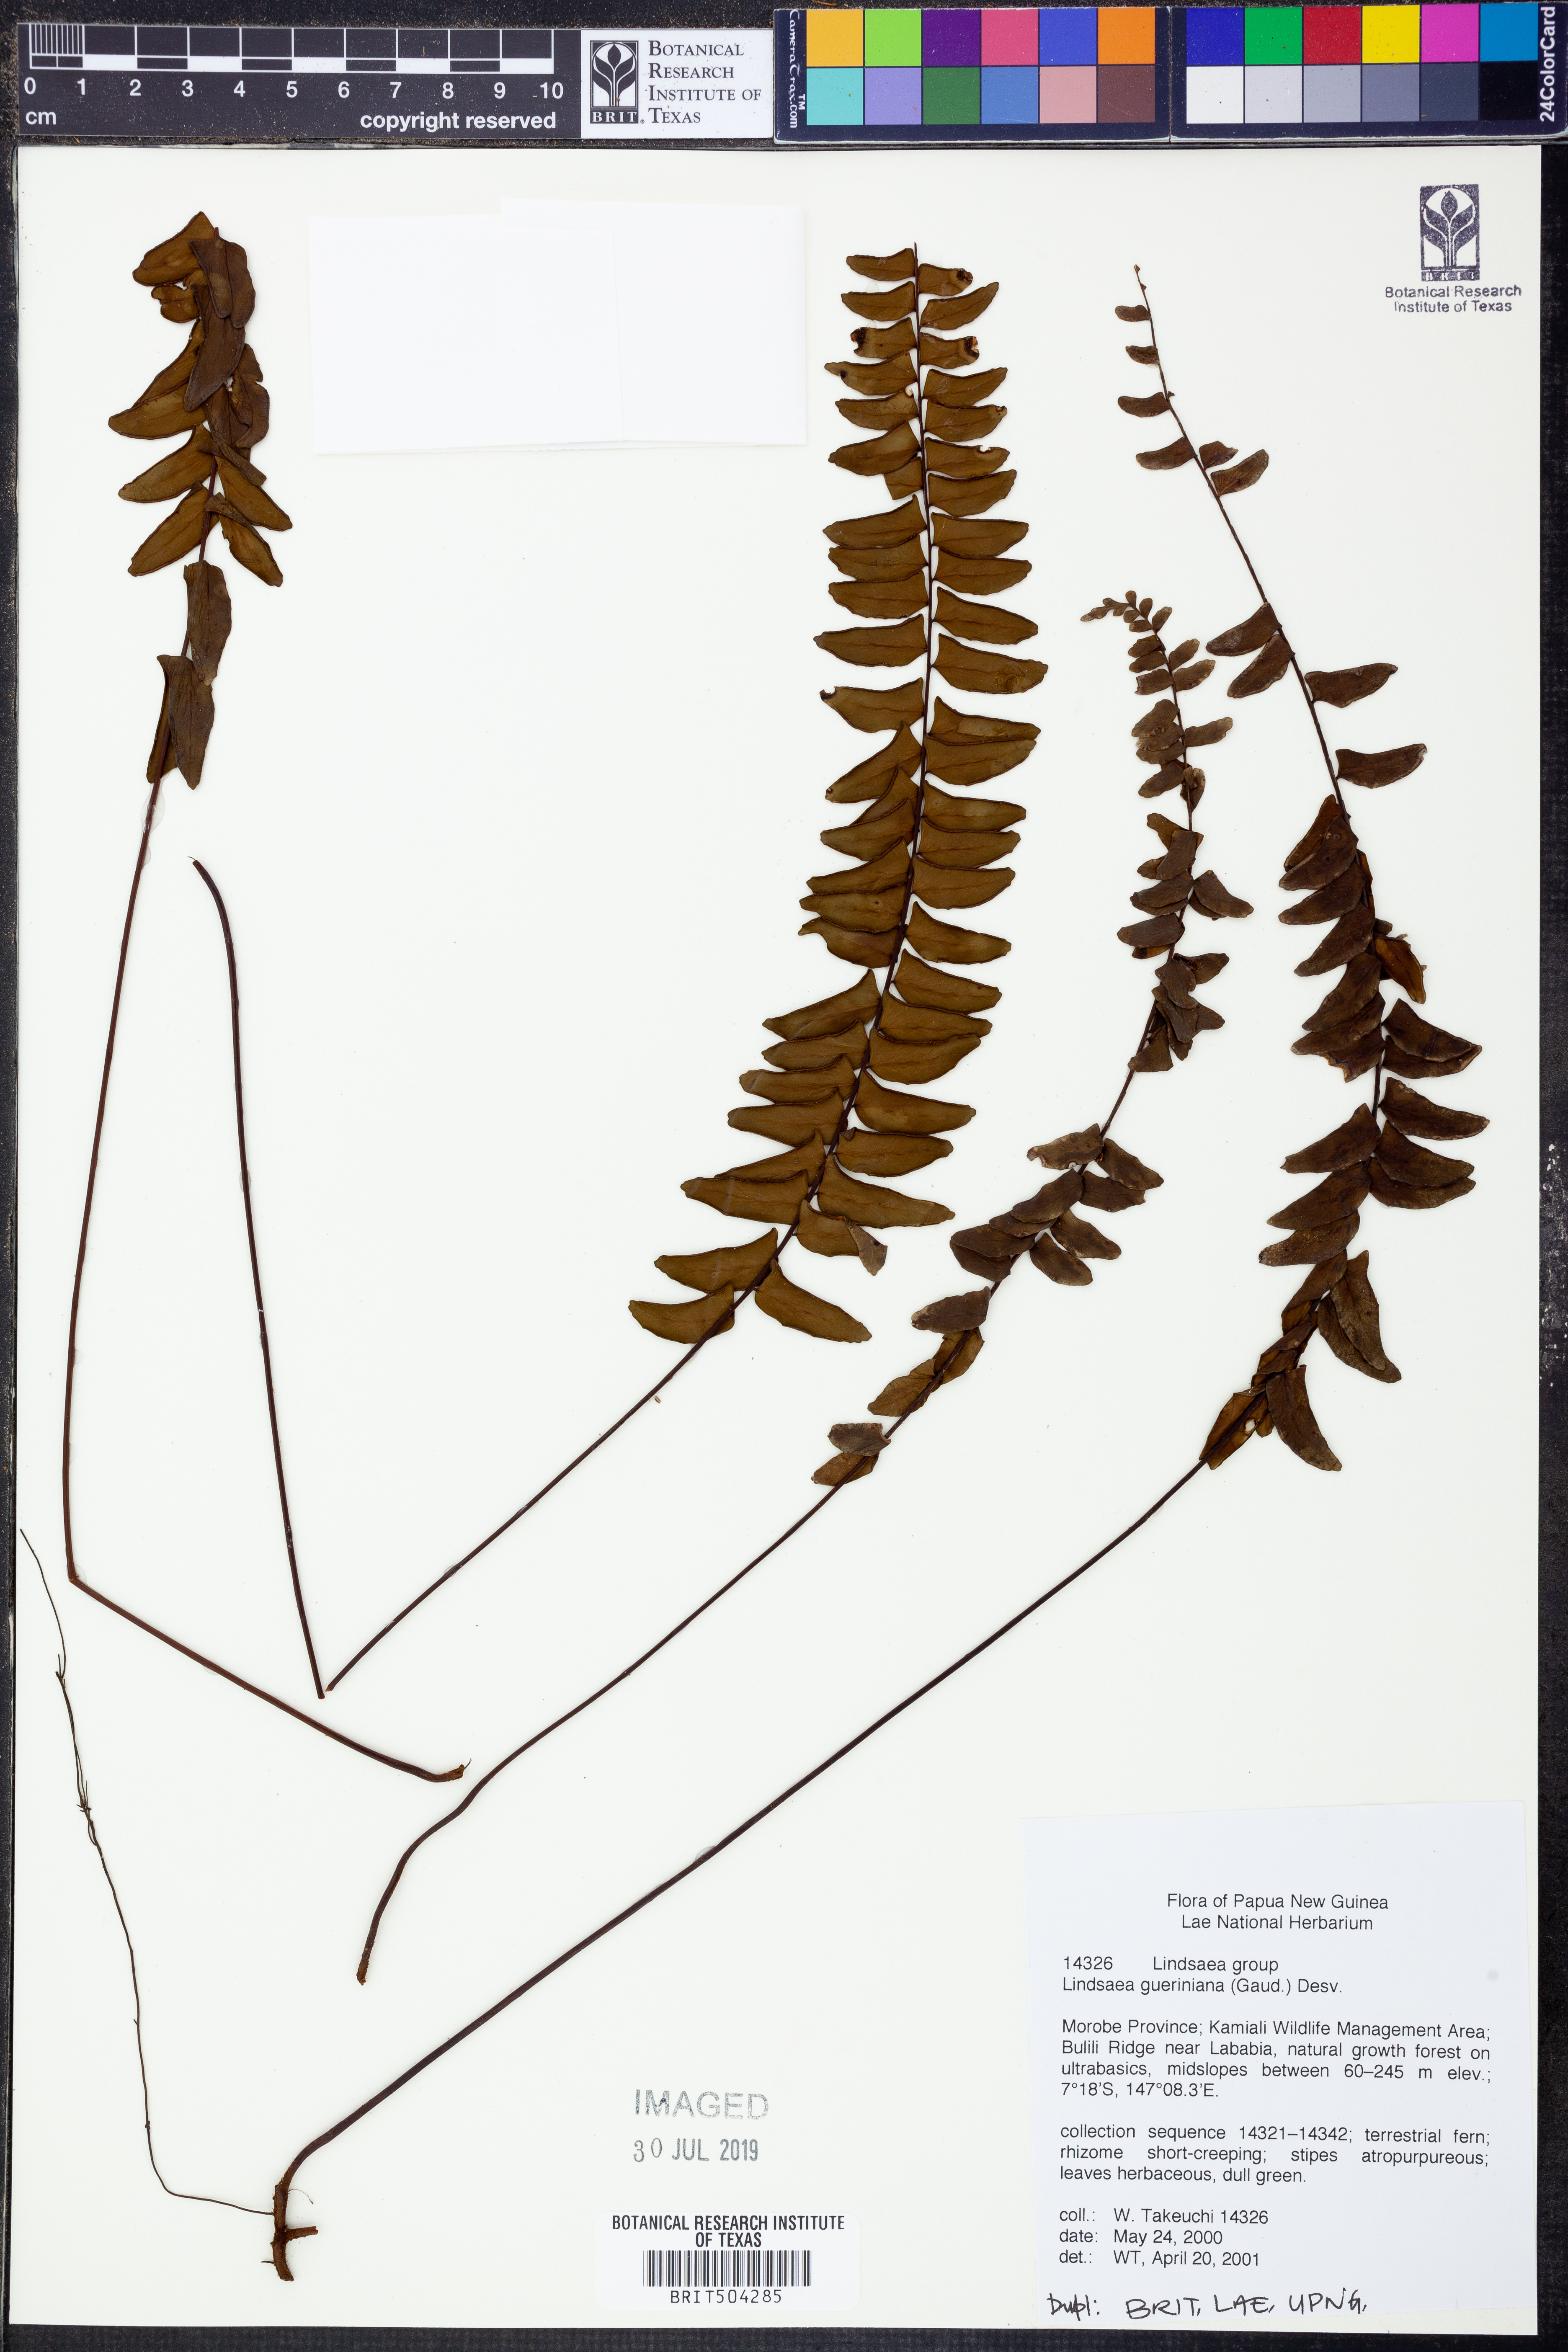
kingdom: Plantae
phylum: Tracheophyta
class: Polypodiopsida
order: Polypodiales
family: Lindsaeaceae
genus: Lindsaea
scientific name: Lindsaea gueriniana
